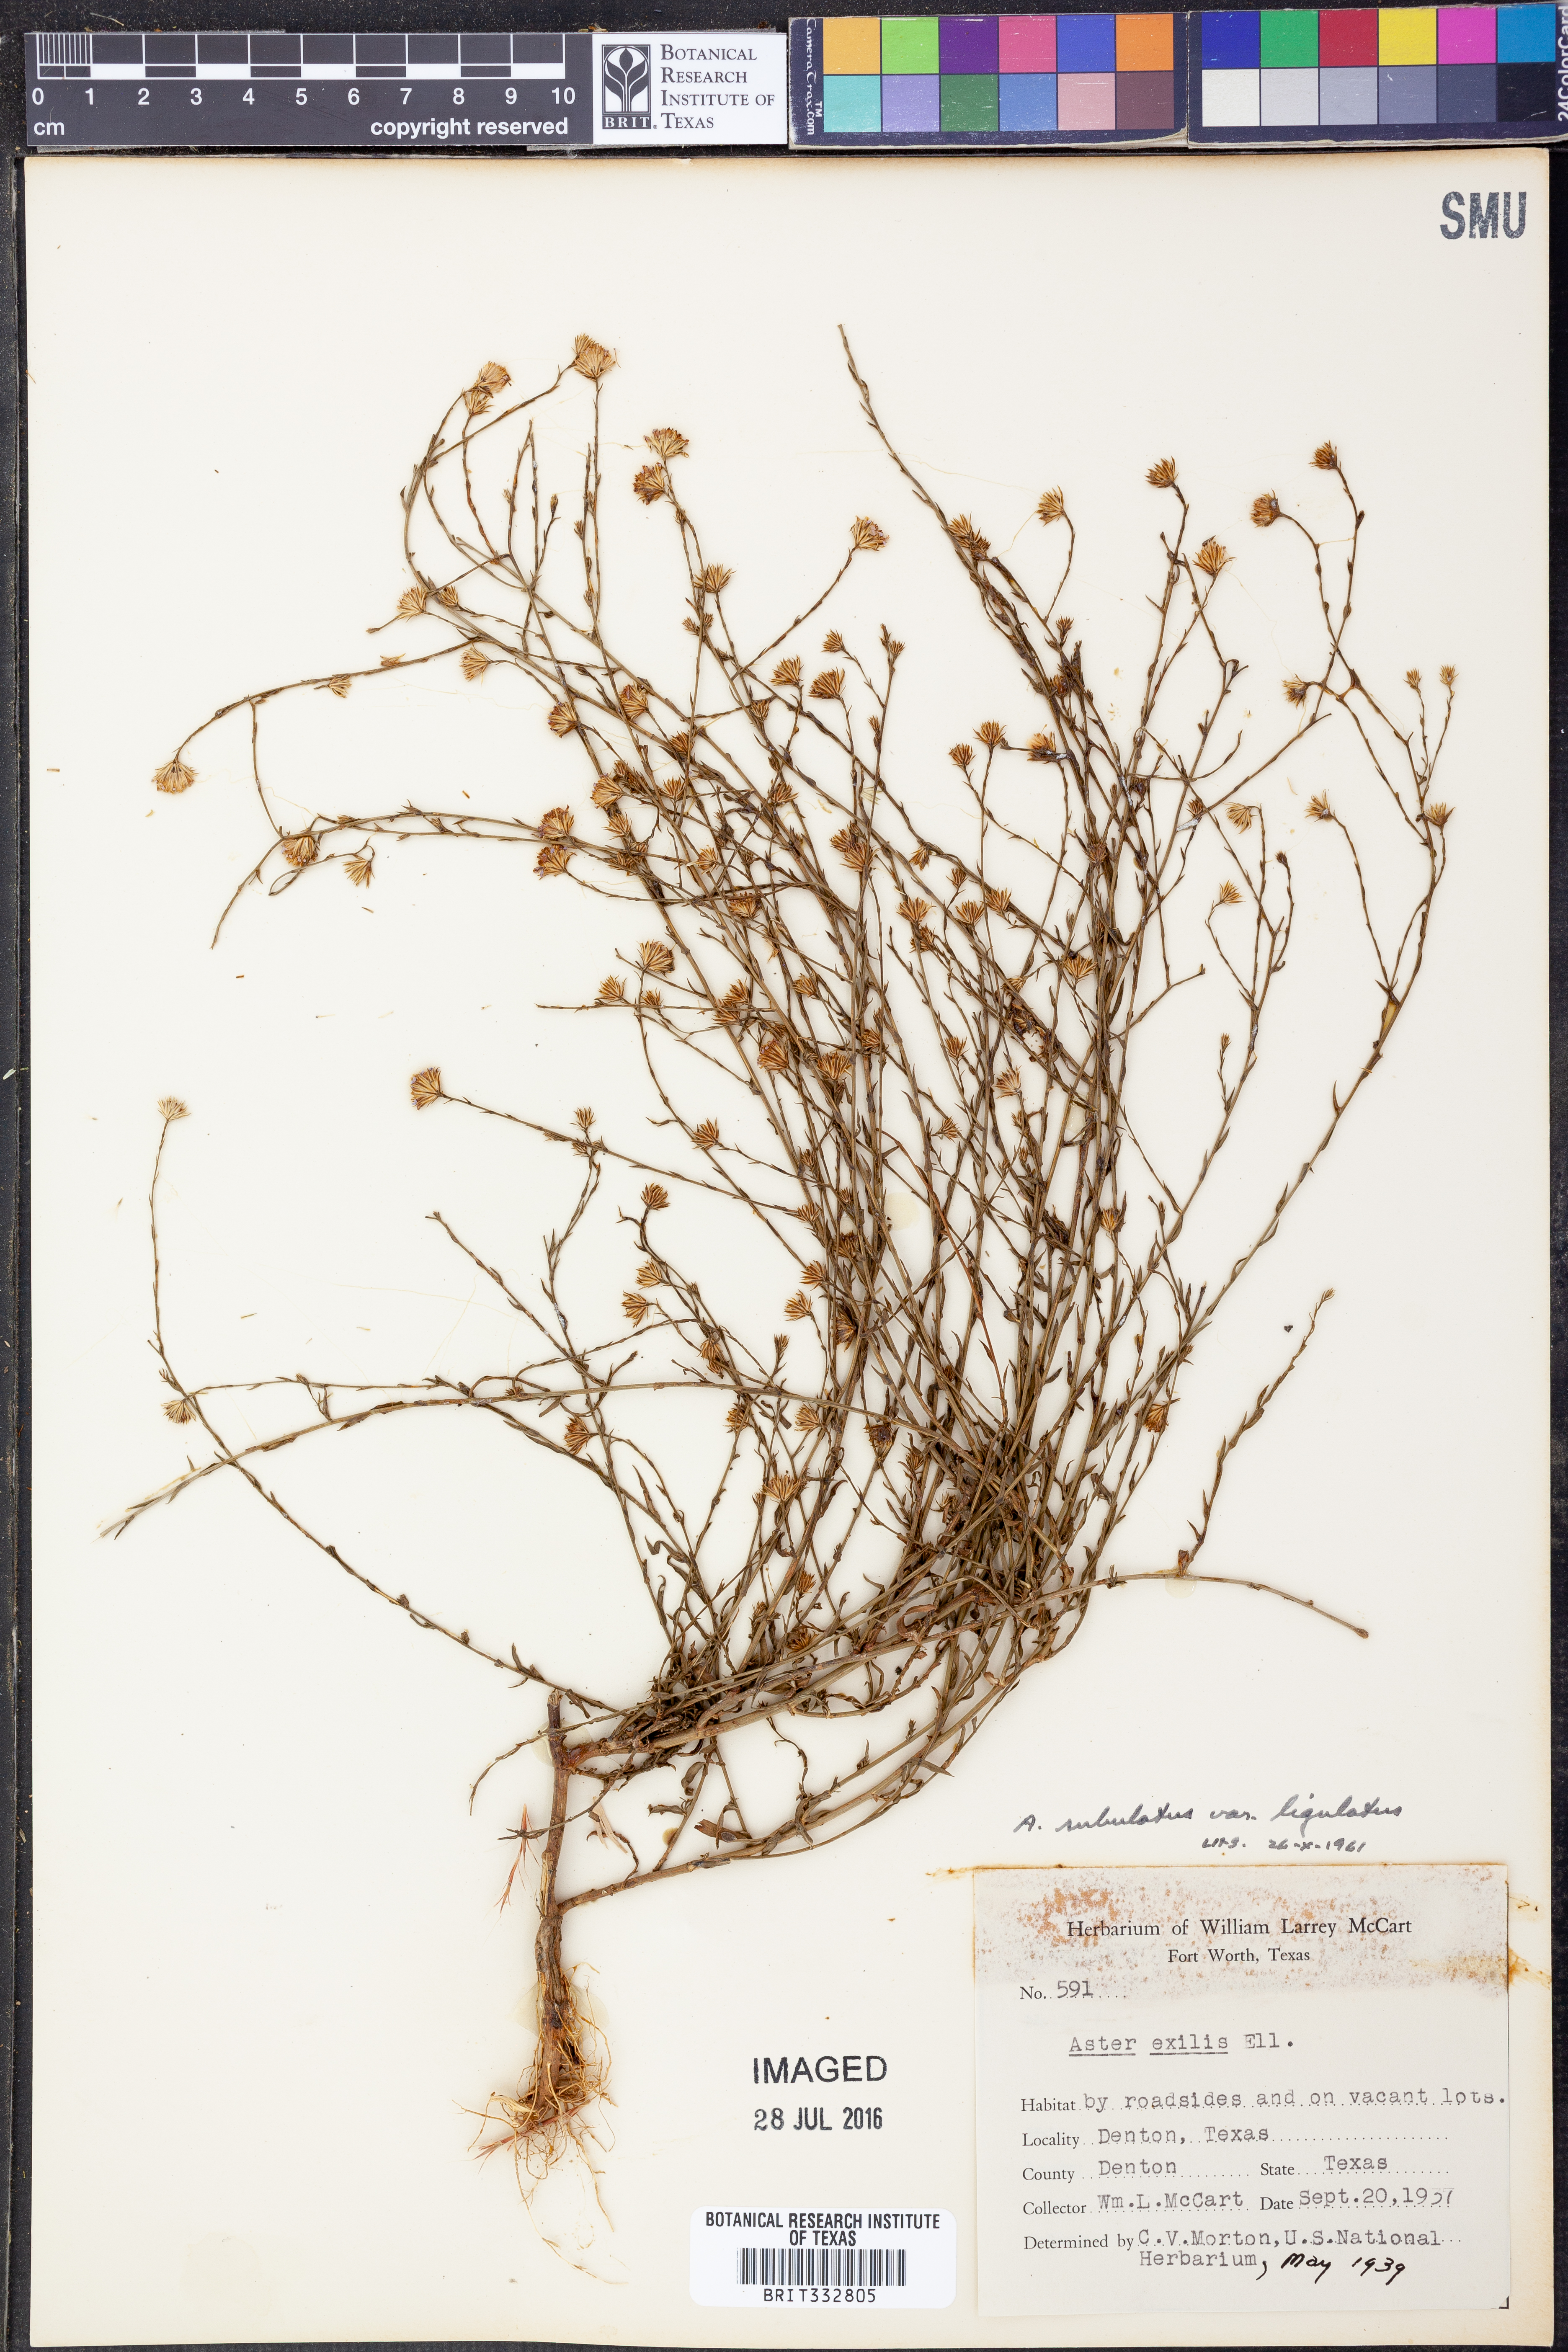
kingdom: Plantae
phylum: Tracheophyta
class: Magnoliopsida
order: Asterales
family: Asteraceae
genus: Symphyotrichum
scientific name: Symphyotrichum divaricatum
